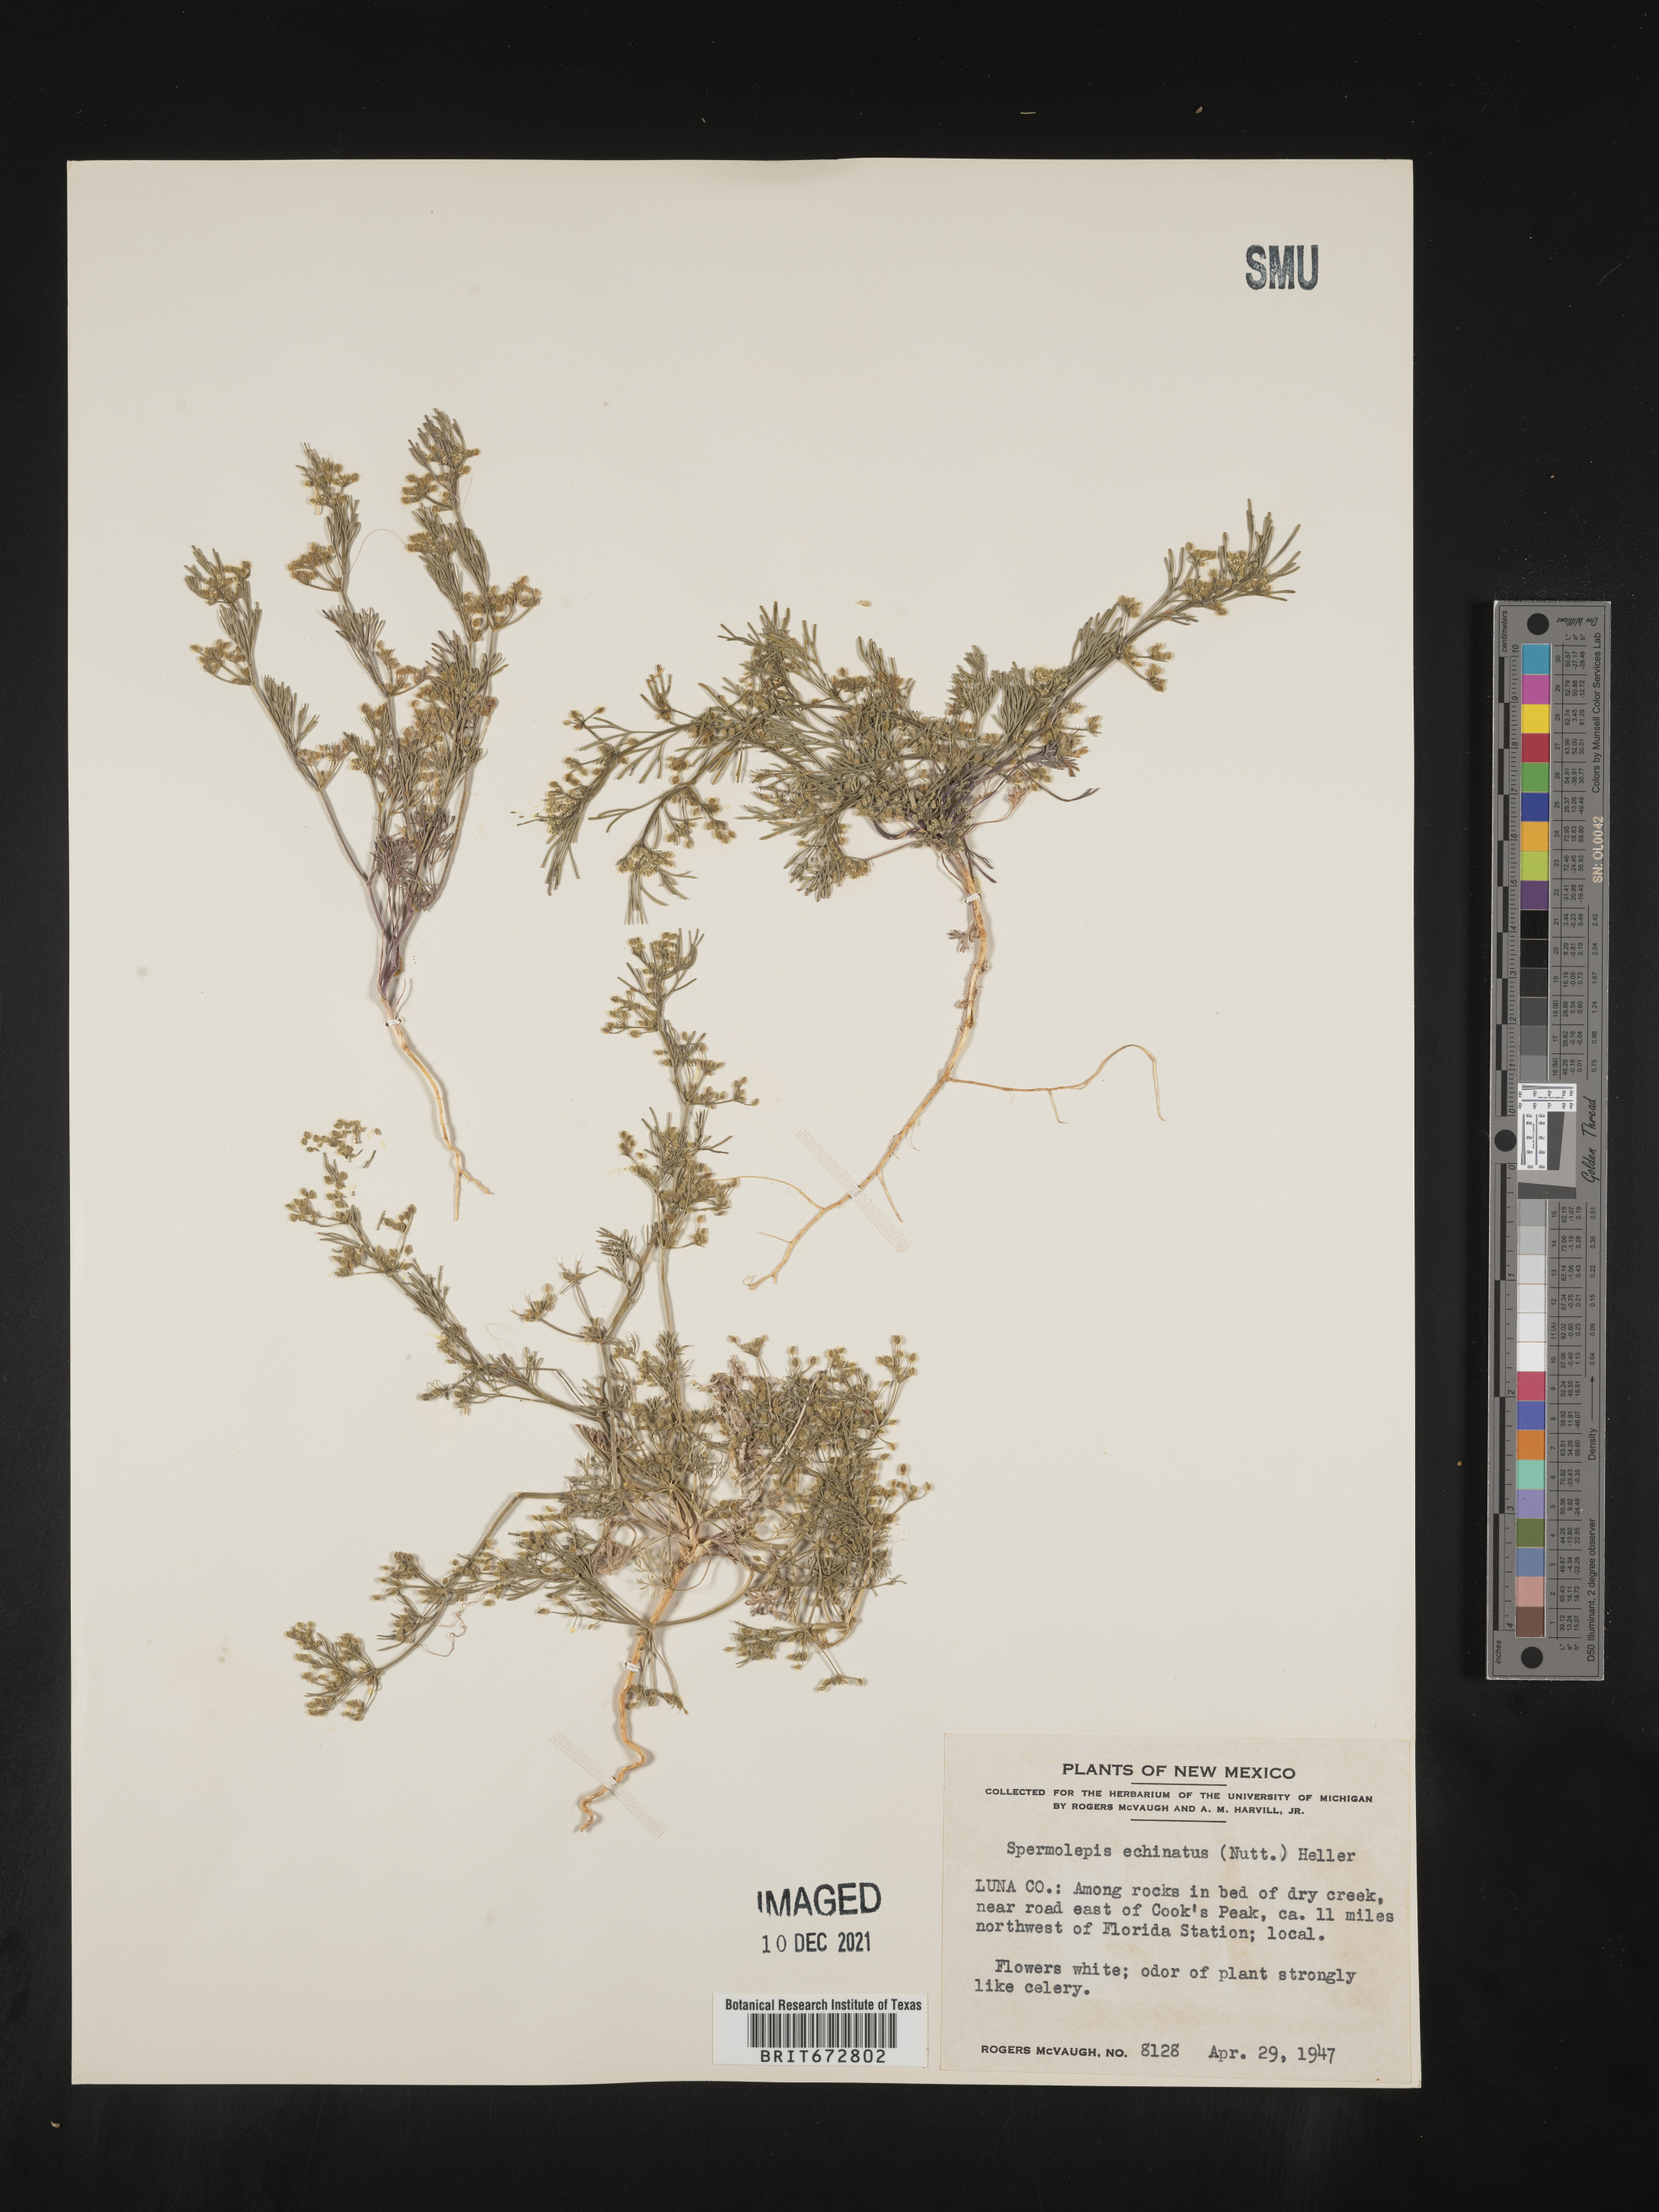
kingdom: Plantae
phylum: Tracheophyta
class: Magnoliopsida
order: Apiales
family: Apiaceae
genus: Spermolepis
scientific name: Spermolepis echinatus
